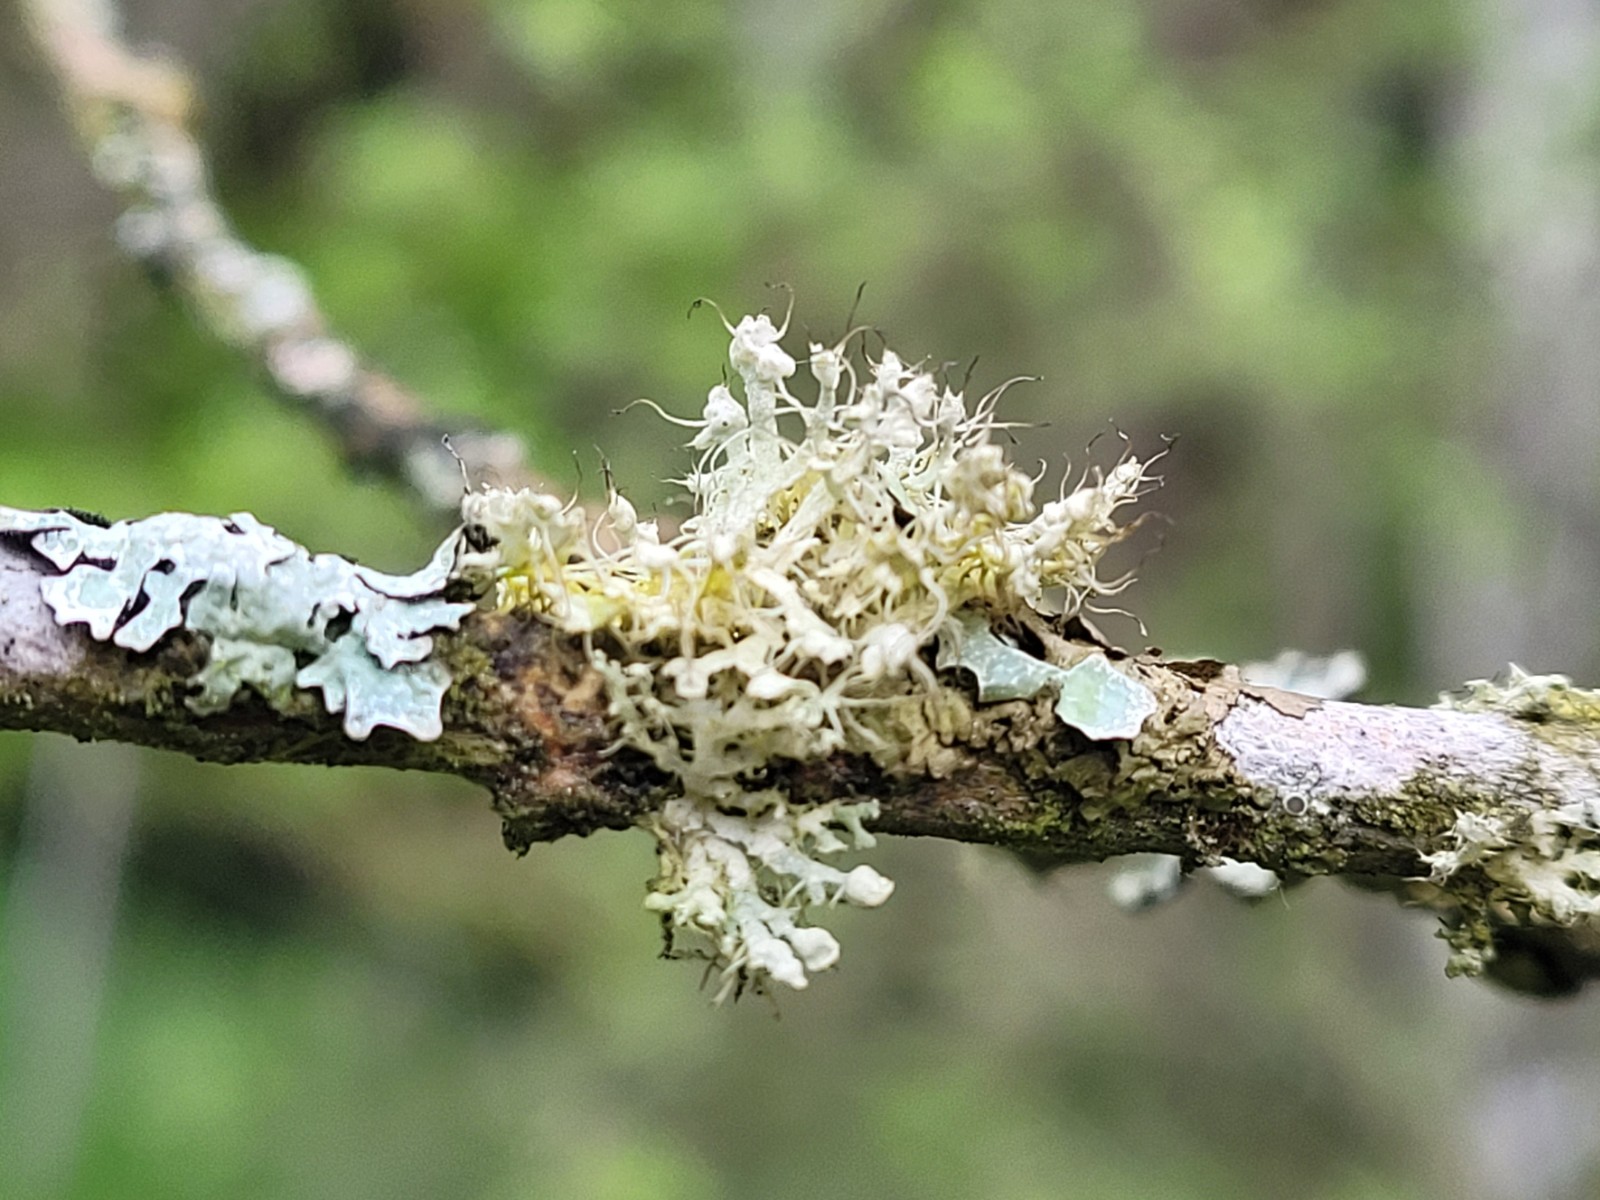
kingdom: Fungi
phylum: Ascomycota
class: Lecanoromycetes
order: Caliciales
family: Physciaceae
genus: Physcia
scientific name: Physcia adscendens
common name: hætte-rosetlav
